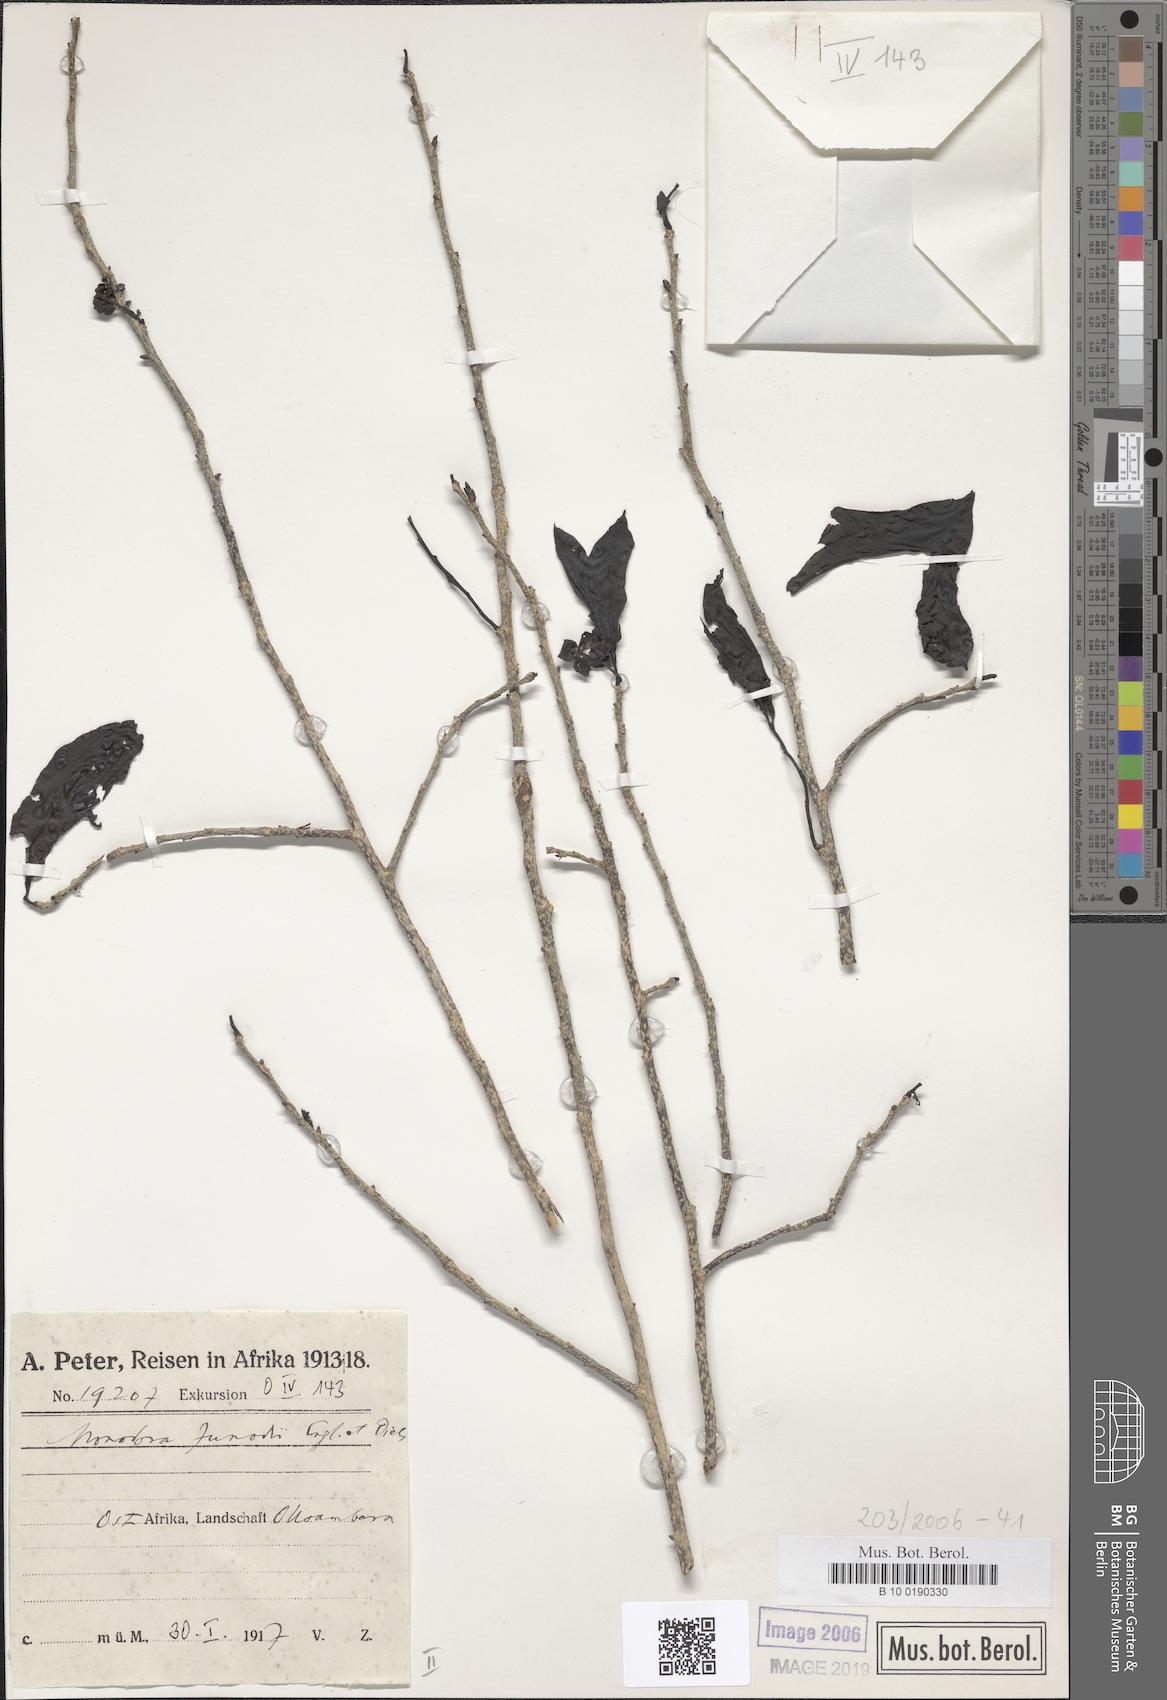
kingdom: Plantae
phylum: Tracheophyta
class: Magnoliopsida
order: Magnoliales
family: Annonaceae
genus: Monodora
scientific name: Monodora junodii
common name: Green-apple
